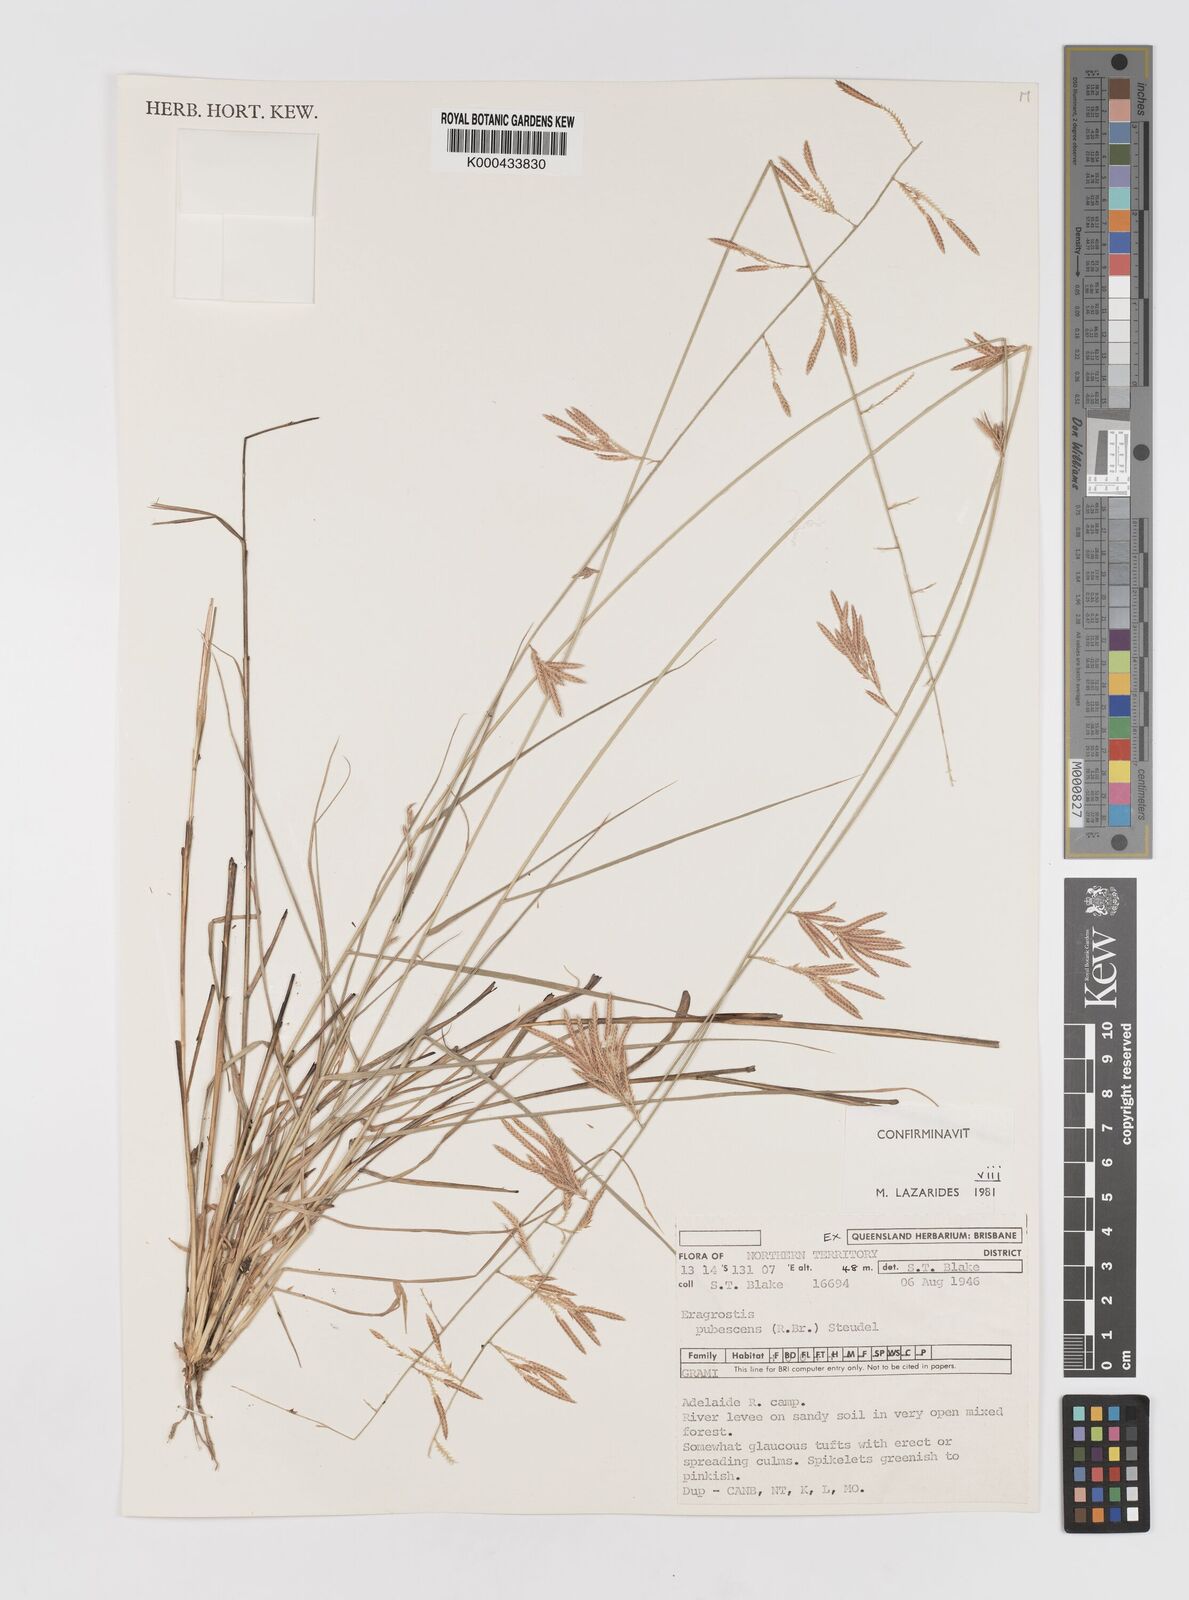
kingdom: Plantae
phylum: Tracheophyta
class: Liliopsida
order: Poales
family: Poaceae
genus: Eragrostis
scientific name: Eragrostis pubescens
